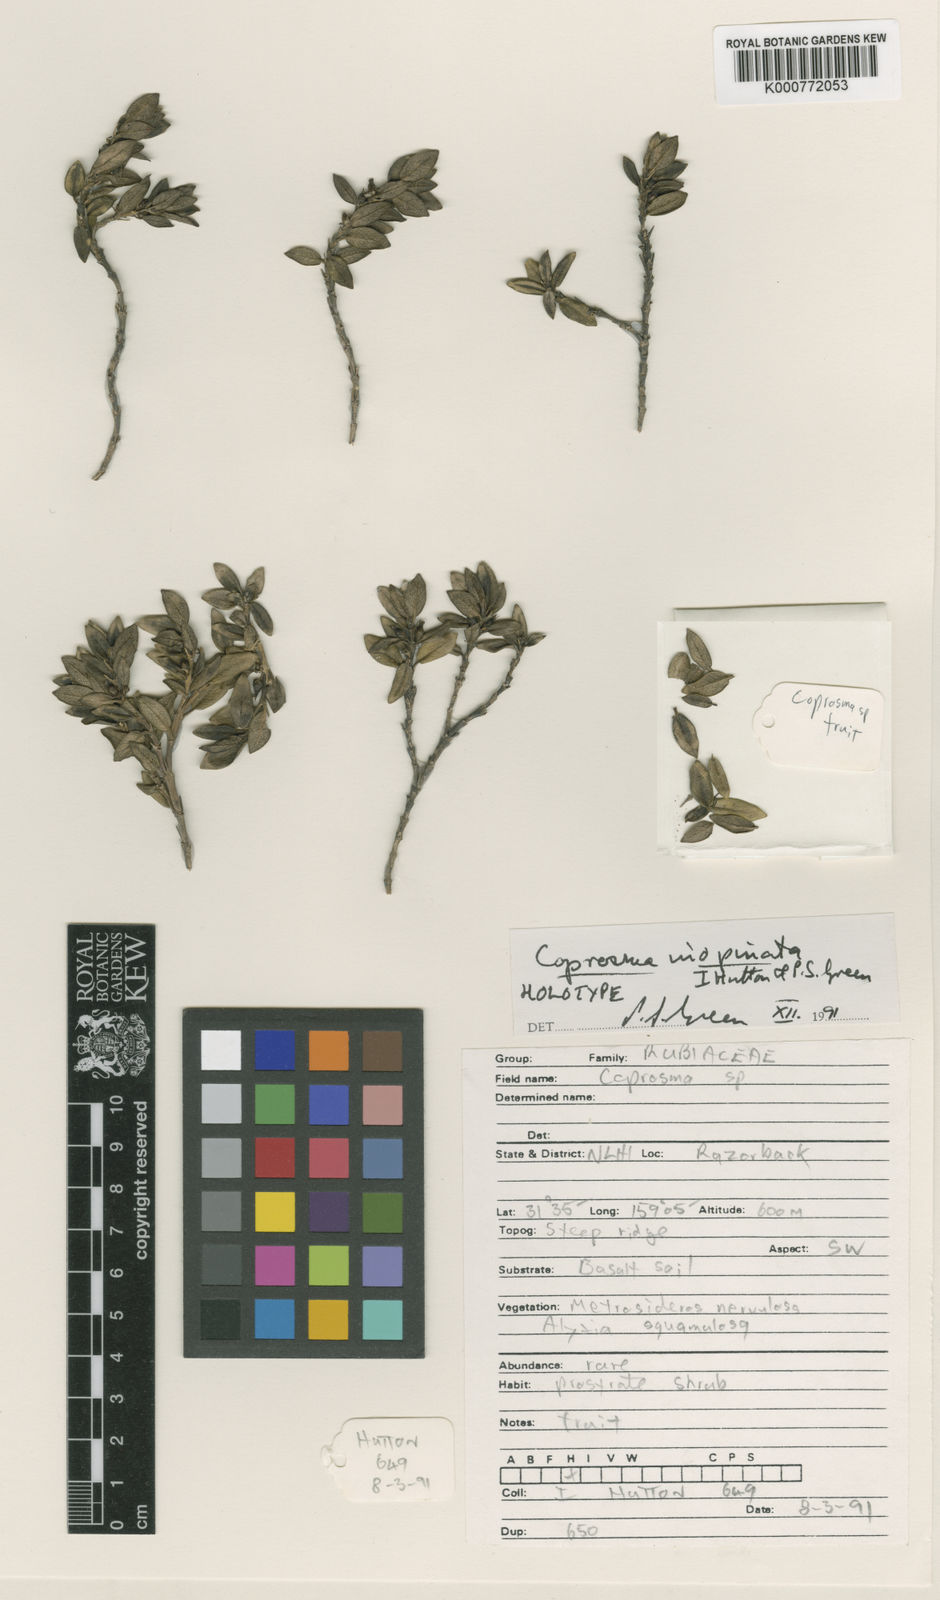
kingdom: Plantae
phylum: Tracheophyta
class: Magnoliopsida
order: Gentianales
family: Rubiaceae
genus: Coprosma
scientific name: Coprosma inopinata
